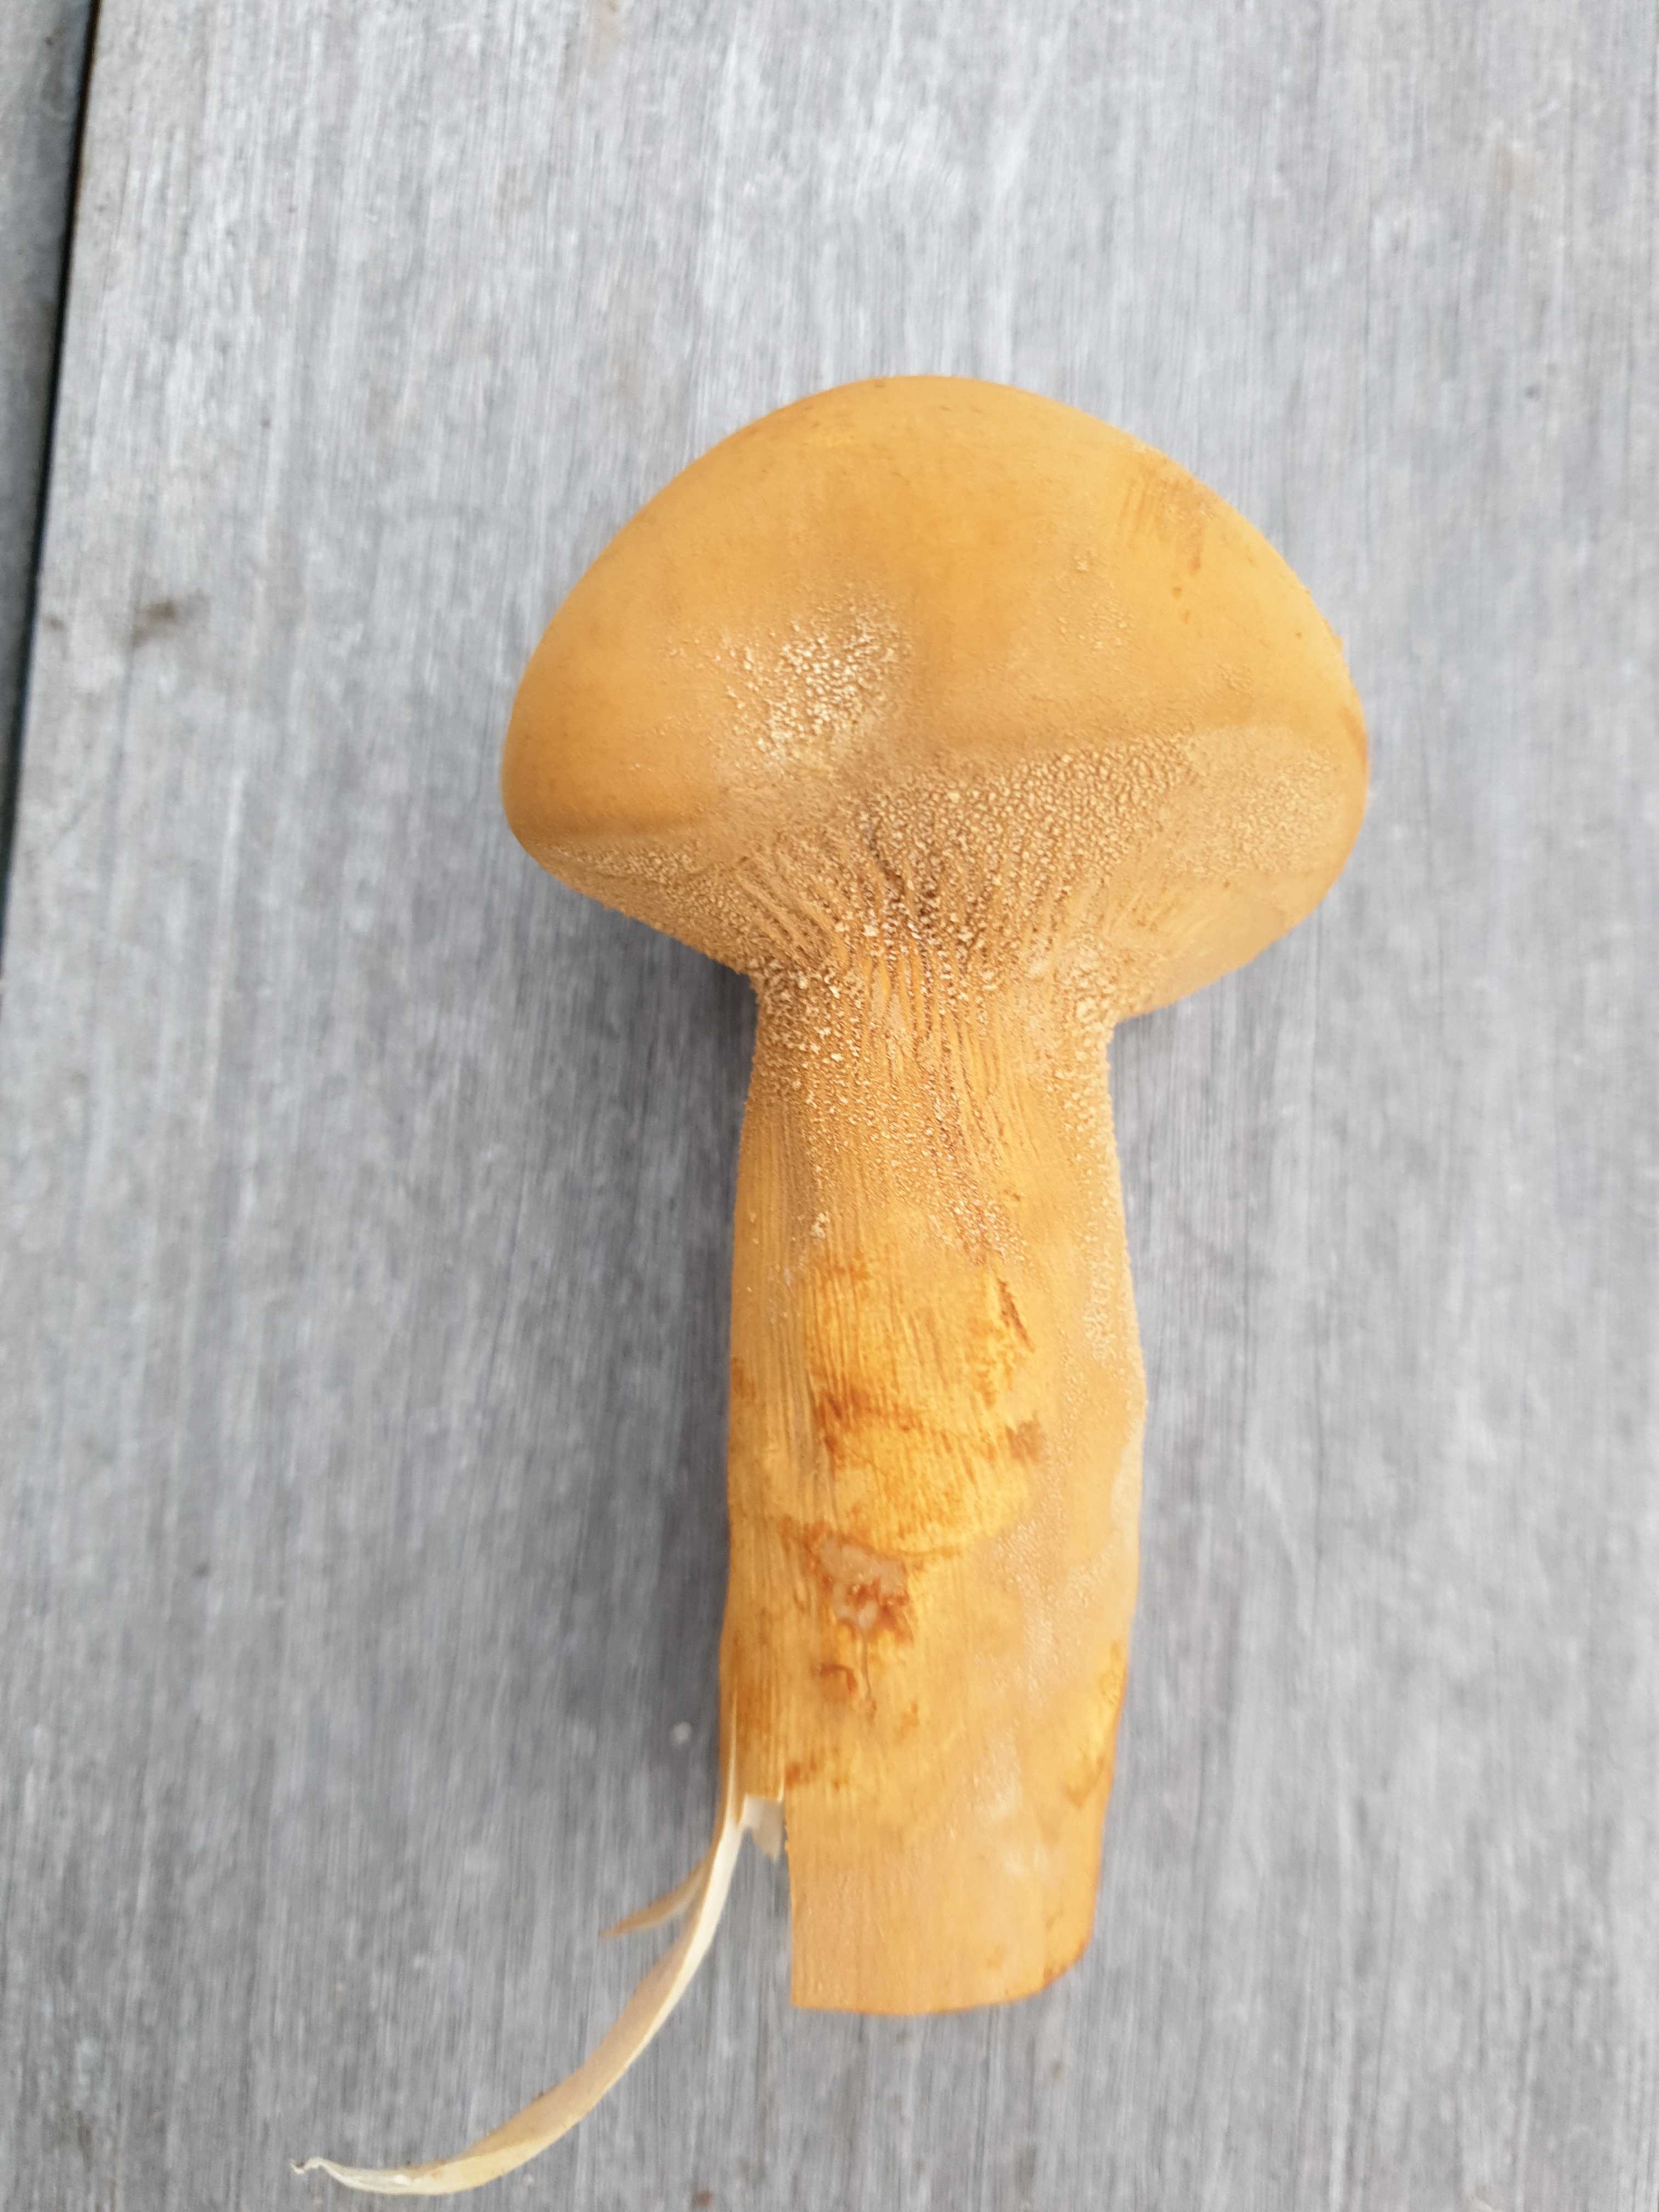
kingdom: Fungi
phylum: Basidiomycota
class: Agaricomycetes
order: Agaricales
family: Tricholomataceae
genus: Phaeolepiota
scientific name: Phaeolepiota aurea
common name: gyldenhat
